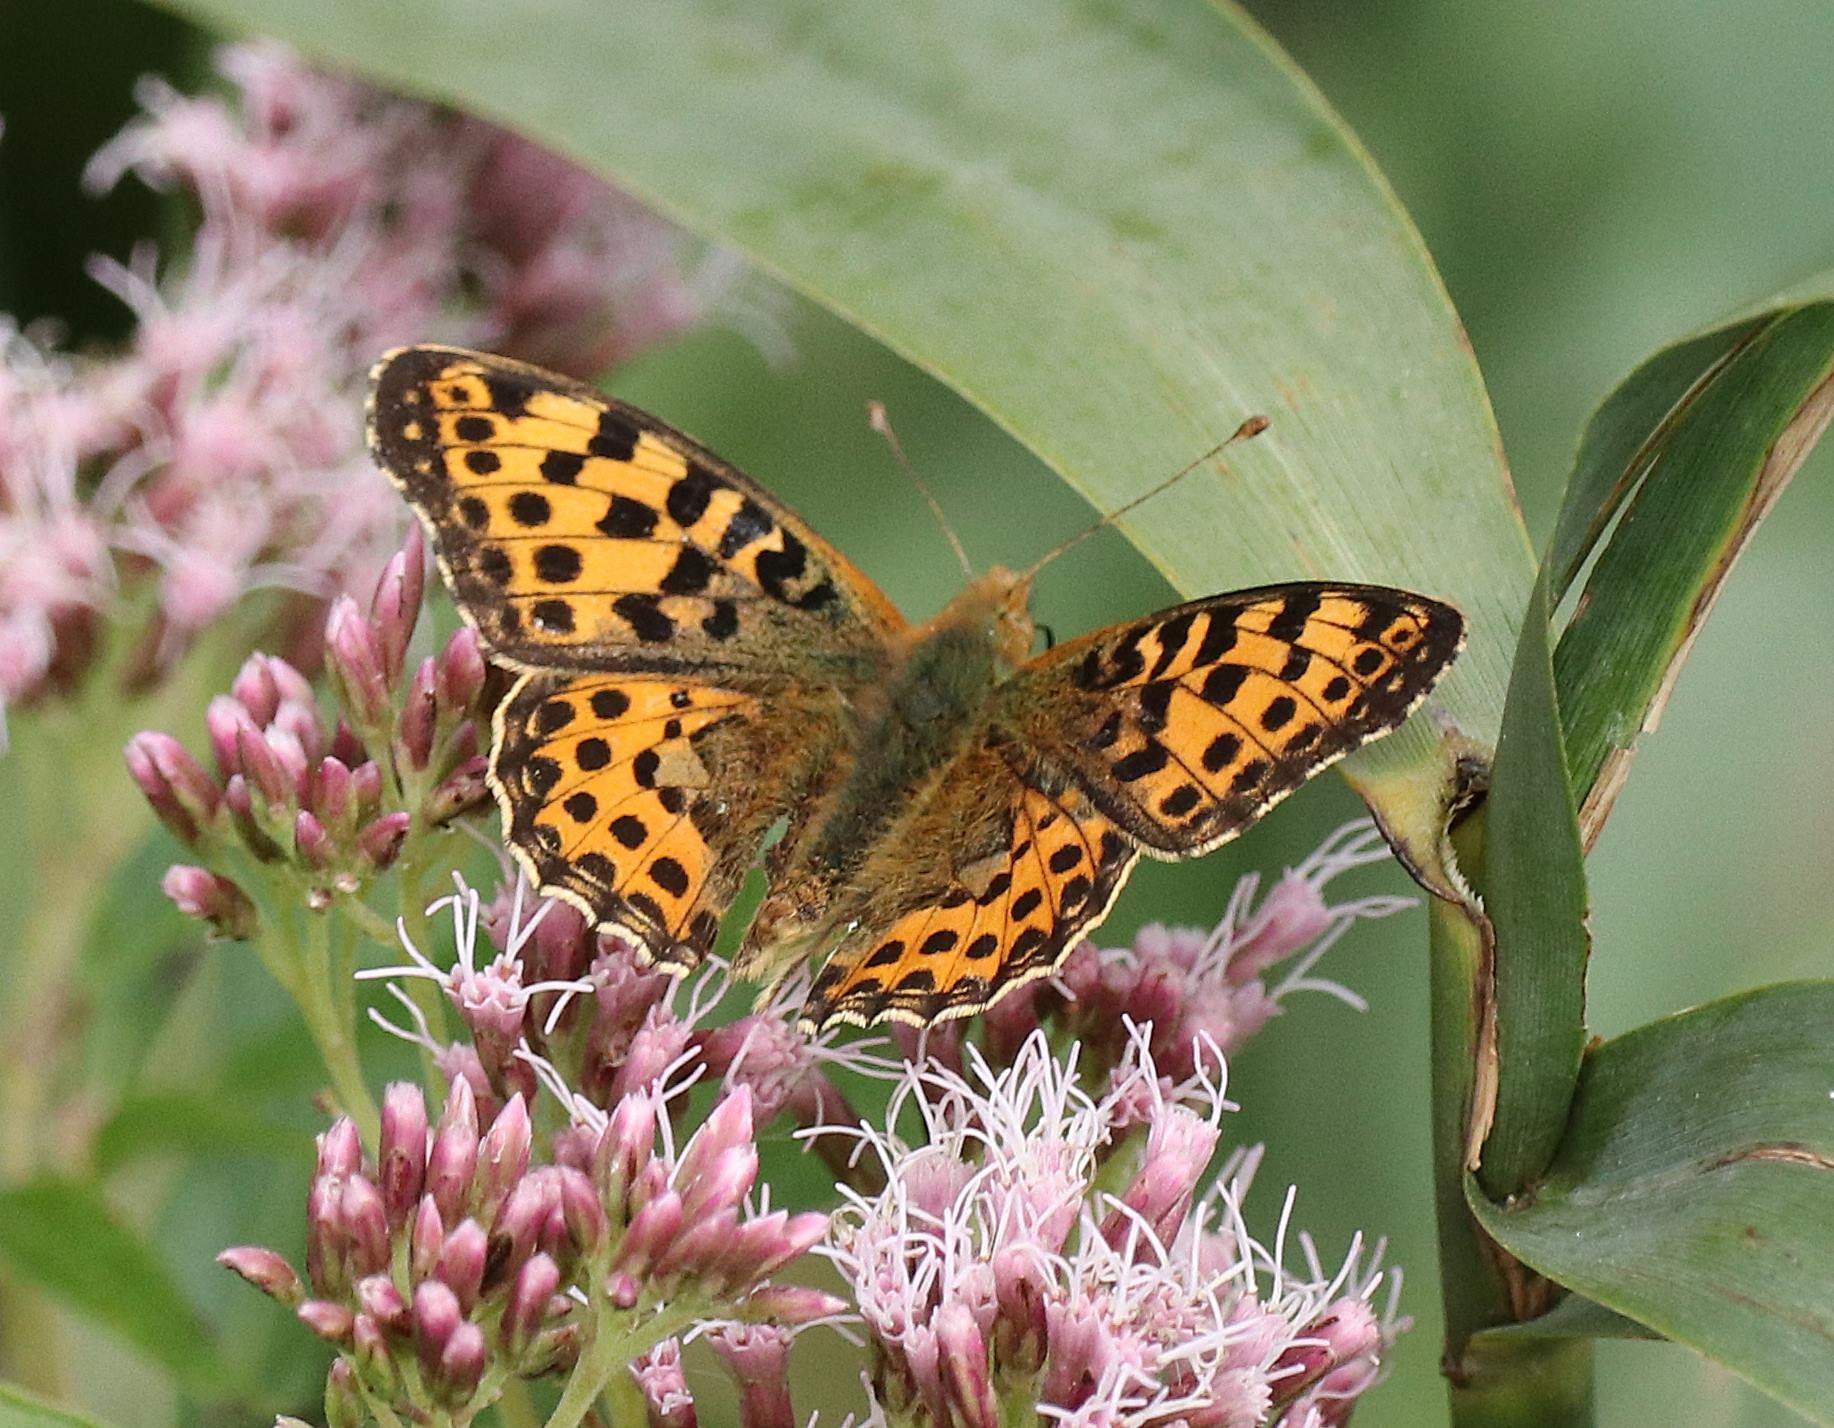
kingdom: Animalia
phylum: Arthropoda
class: Insecta
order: Lepidoptera
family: Nymphalidae
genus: Issoria
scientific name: Issoria lathonia
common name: Storplettet perlemorsommerfugl
